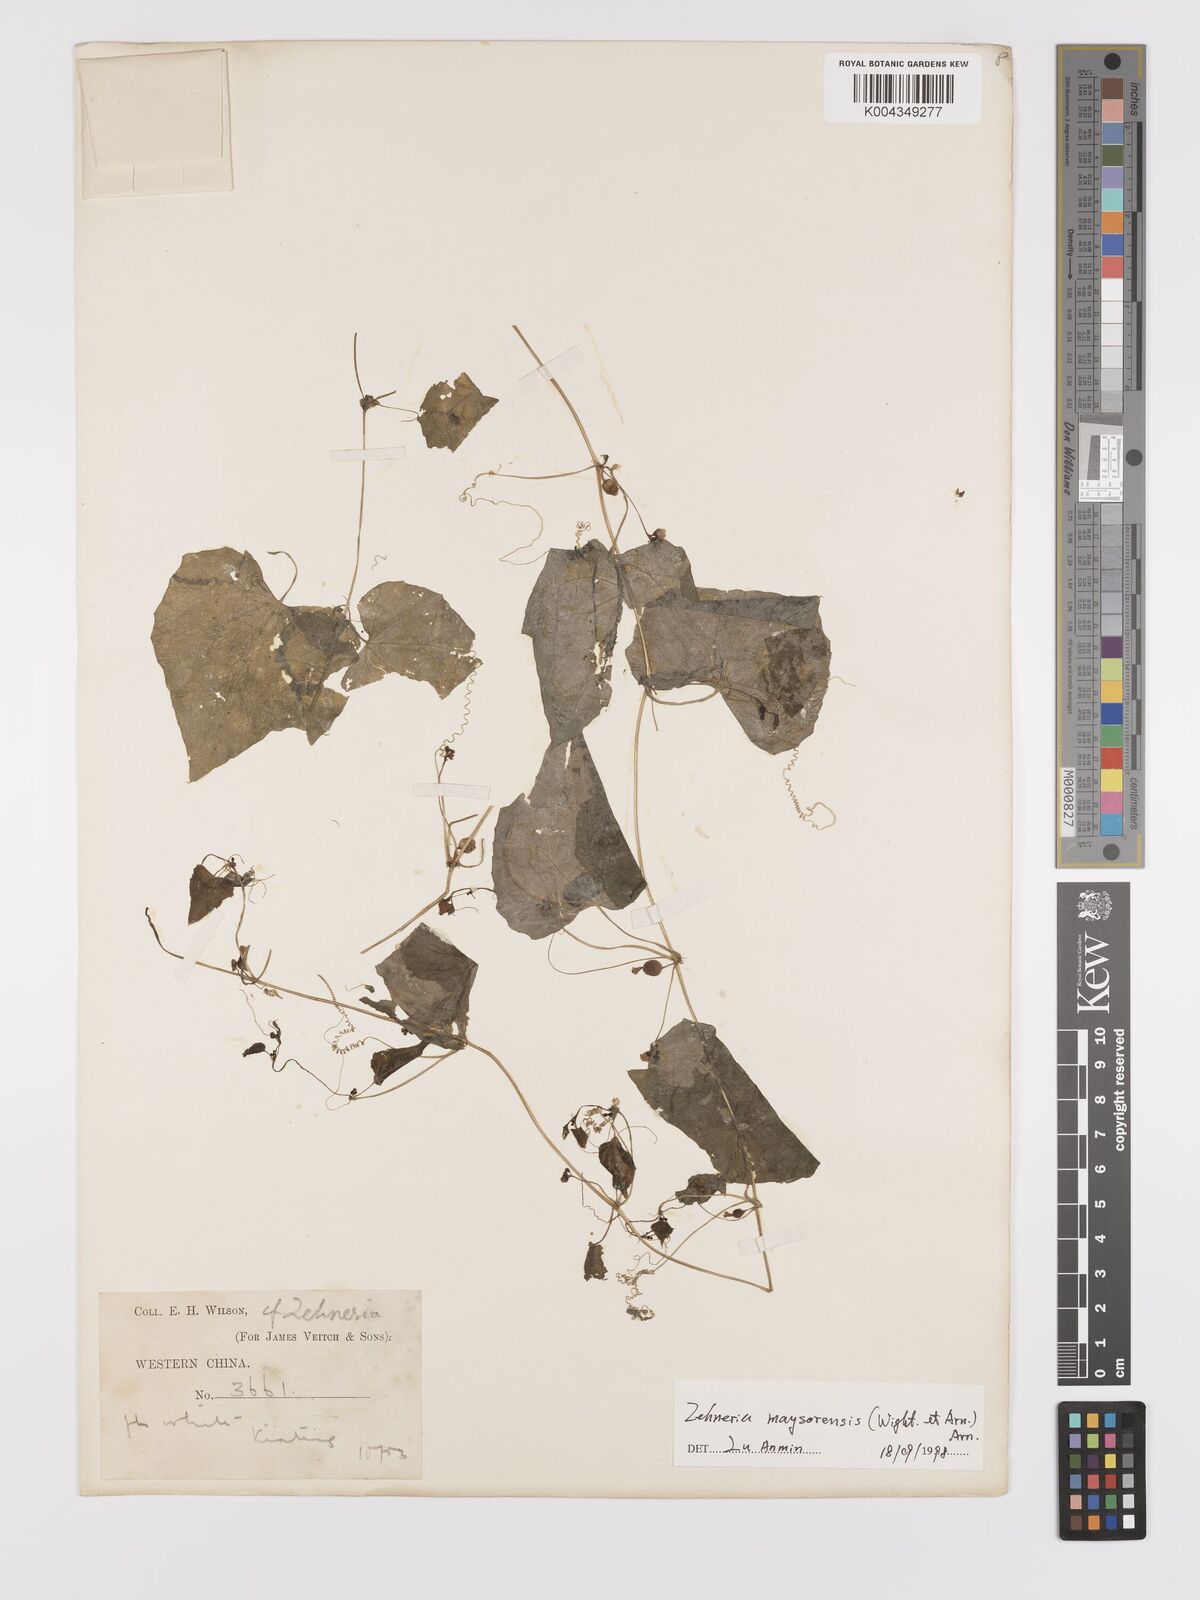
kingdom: Plantae
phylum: Tracheophyta
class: Magnoliopsida
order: Cucurbitales
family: Cucurbitaceae
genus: Zehneria
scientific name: Zehneria maysorensis
